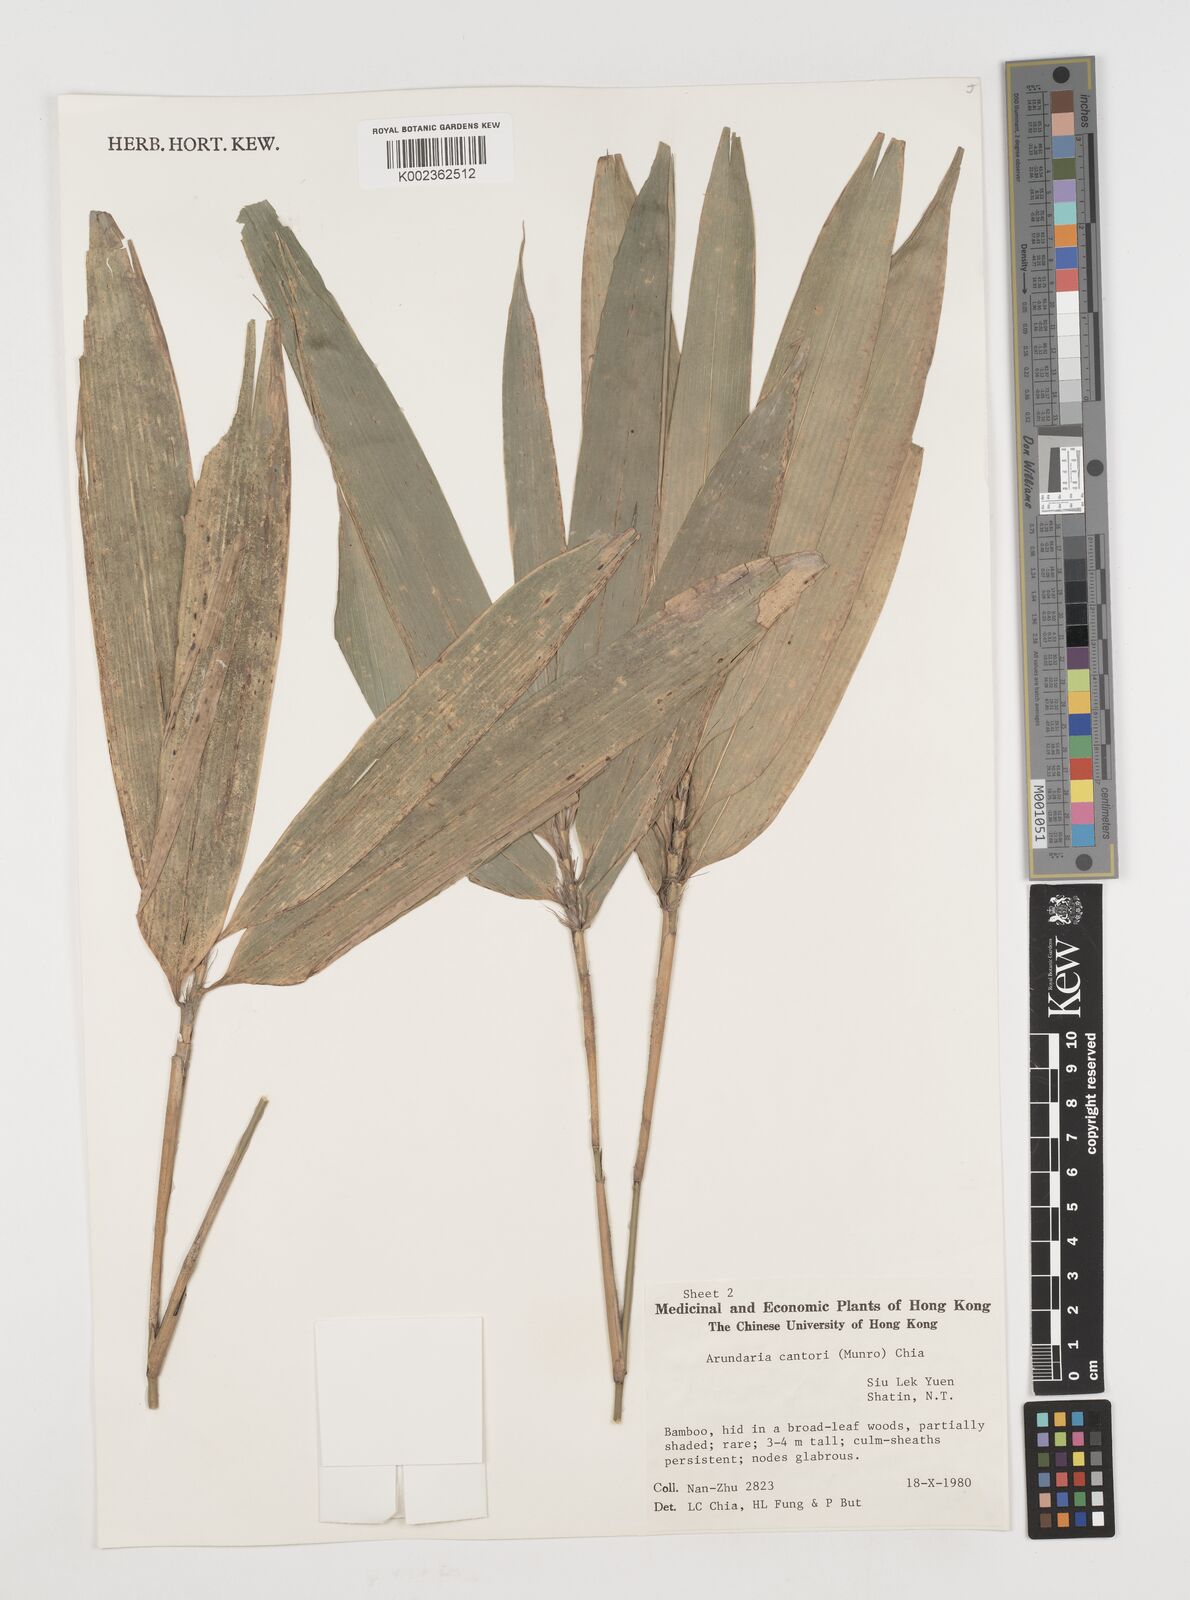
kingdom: Plantae
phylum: Tracheophyta
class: Liliopsida
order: Poales
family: Poaceae
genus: Pseudosasa
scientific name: Pseudosasa cantorii
